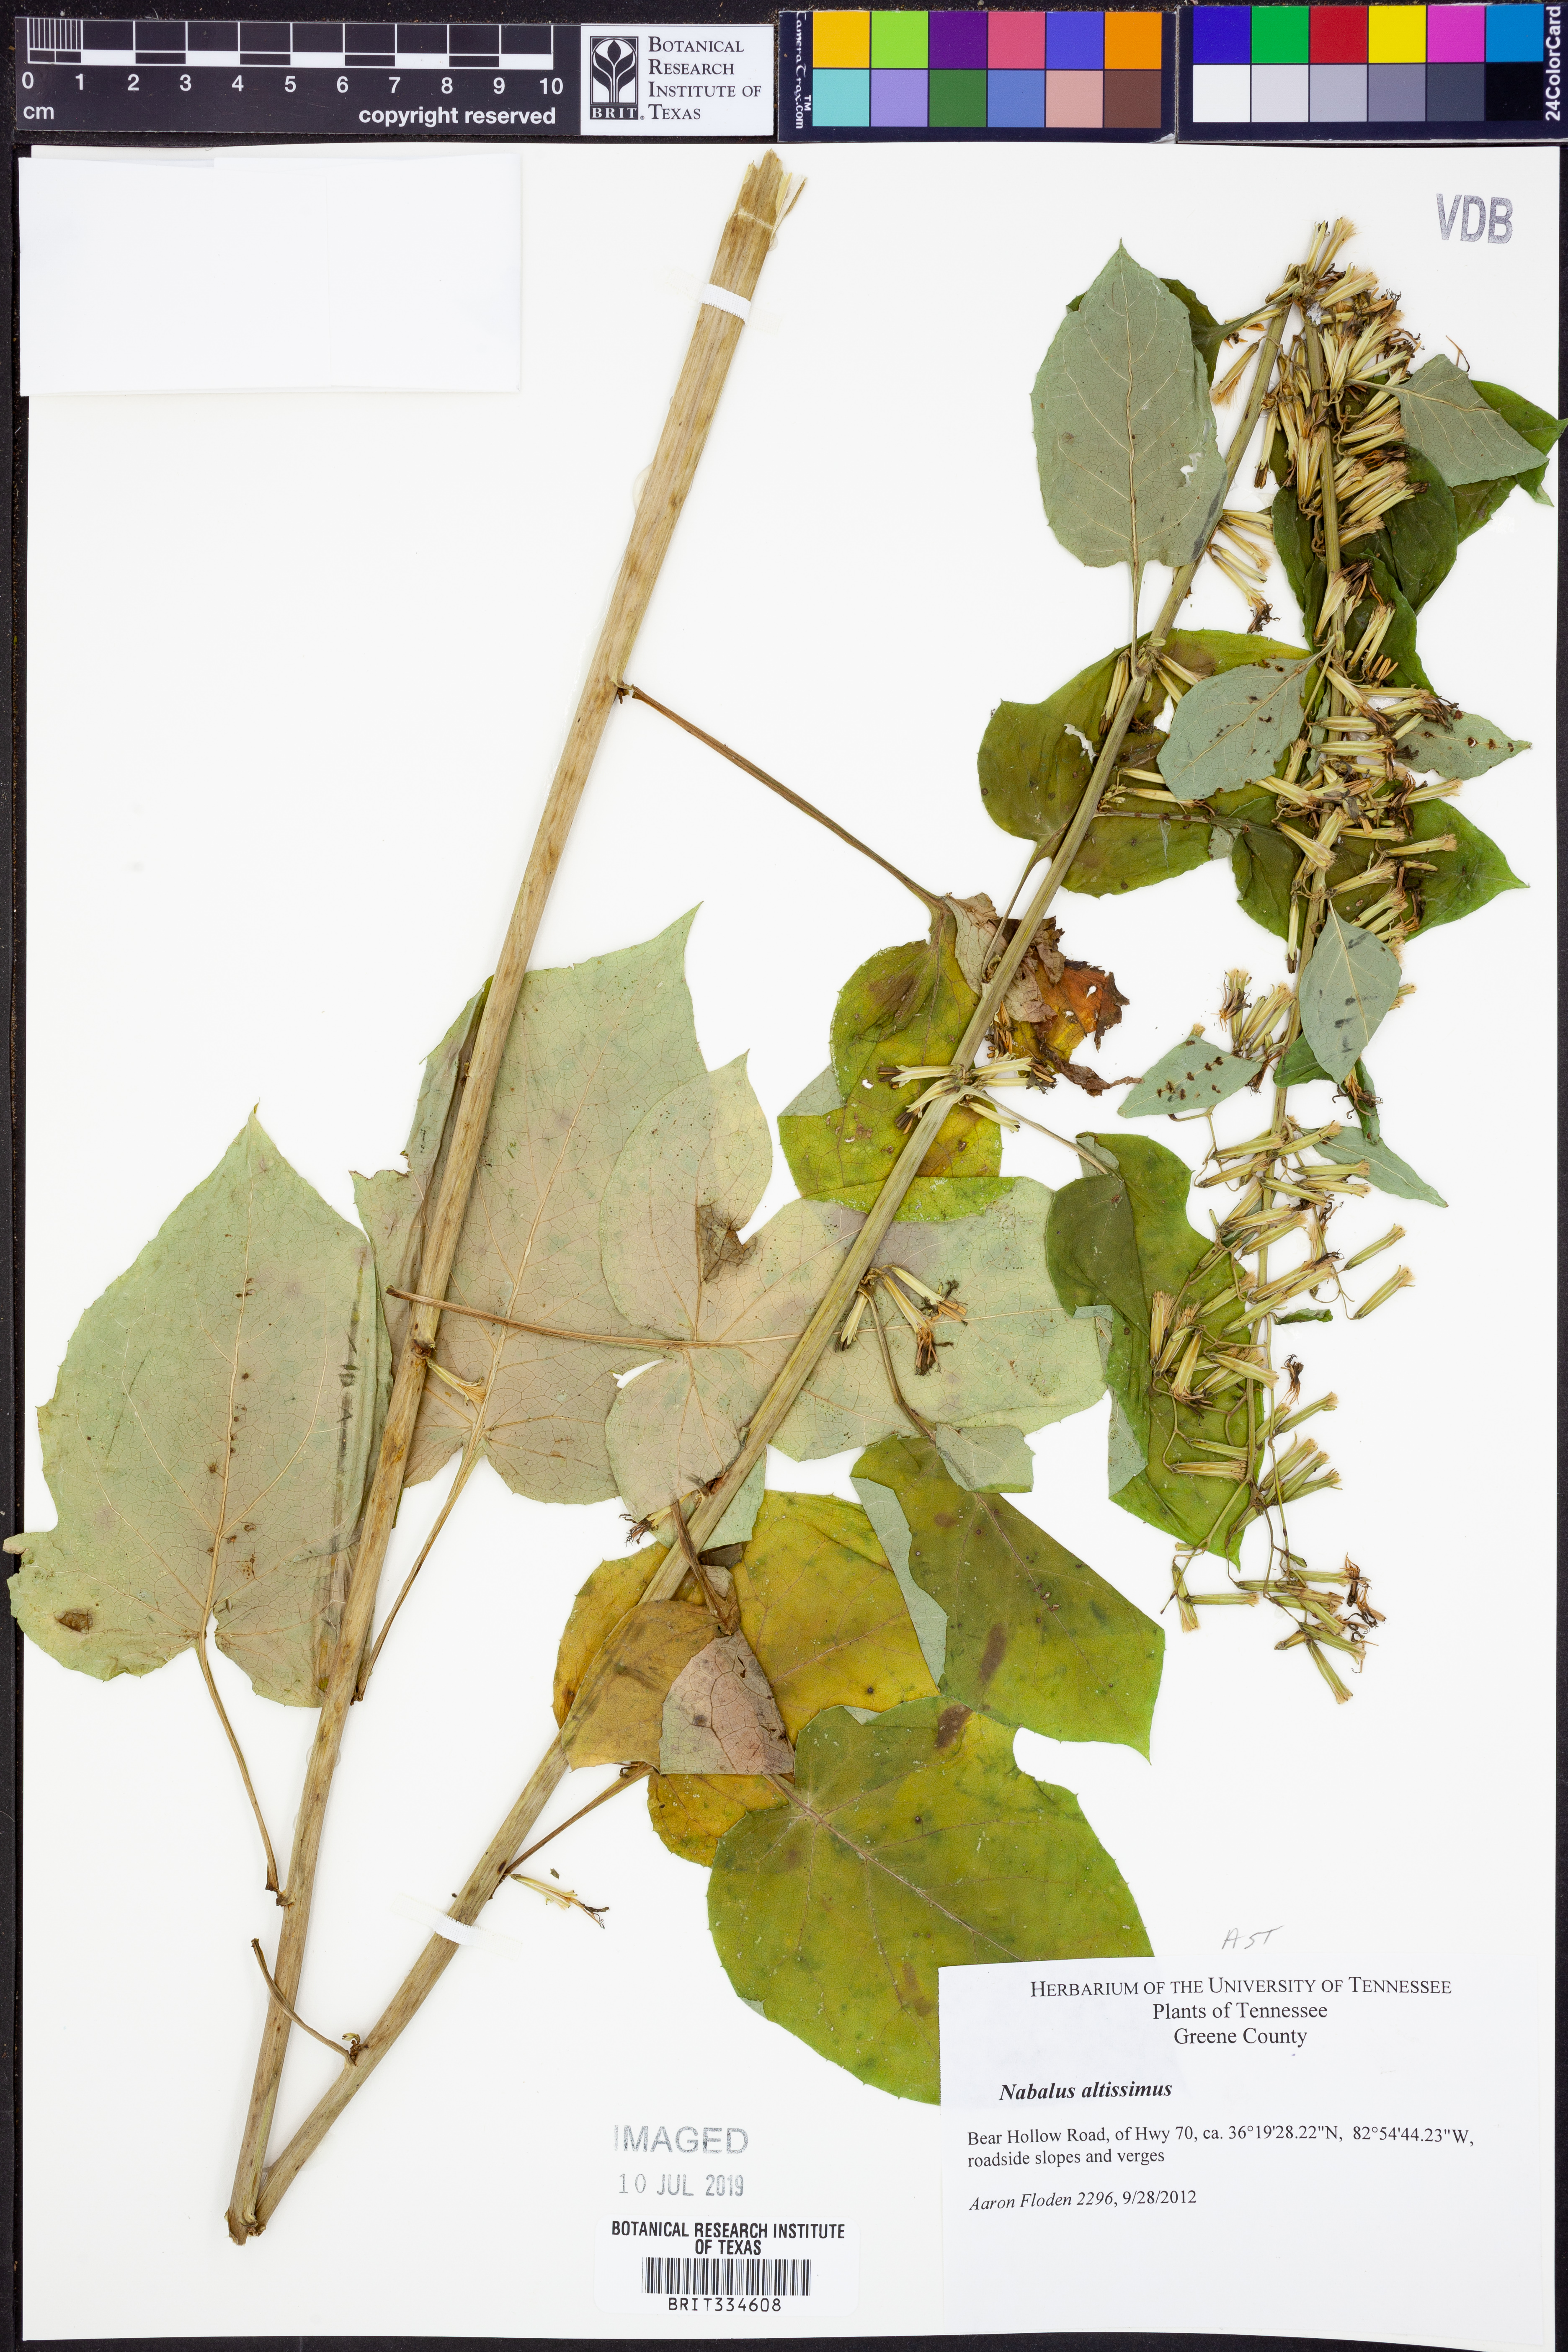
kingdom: Plantae
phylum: Tracheophyta
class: Magnoliopsida
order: Asterales
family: Asteraceae
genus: Nabalus
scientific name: Nabalus altissima
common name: Tall rattlesnakeroot
